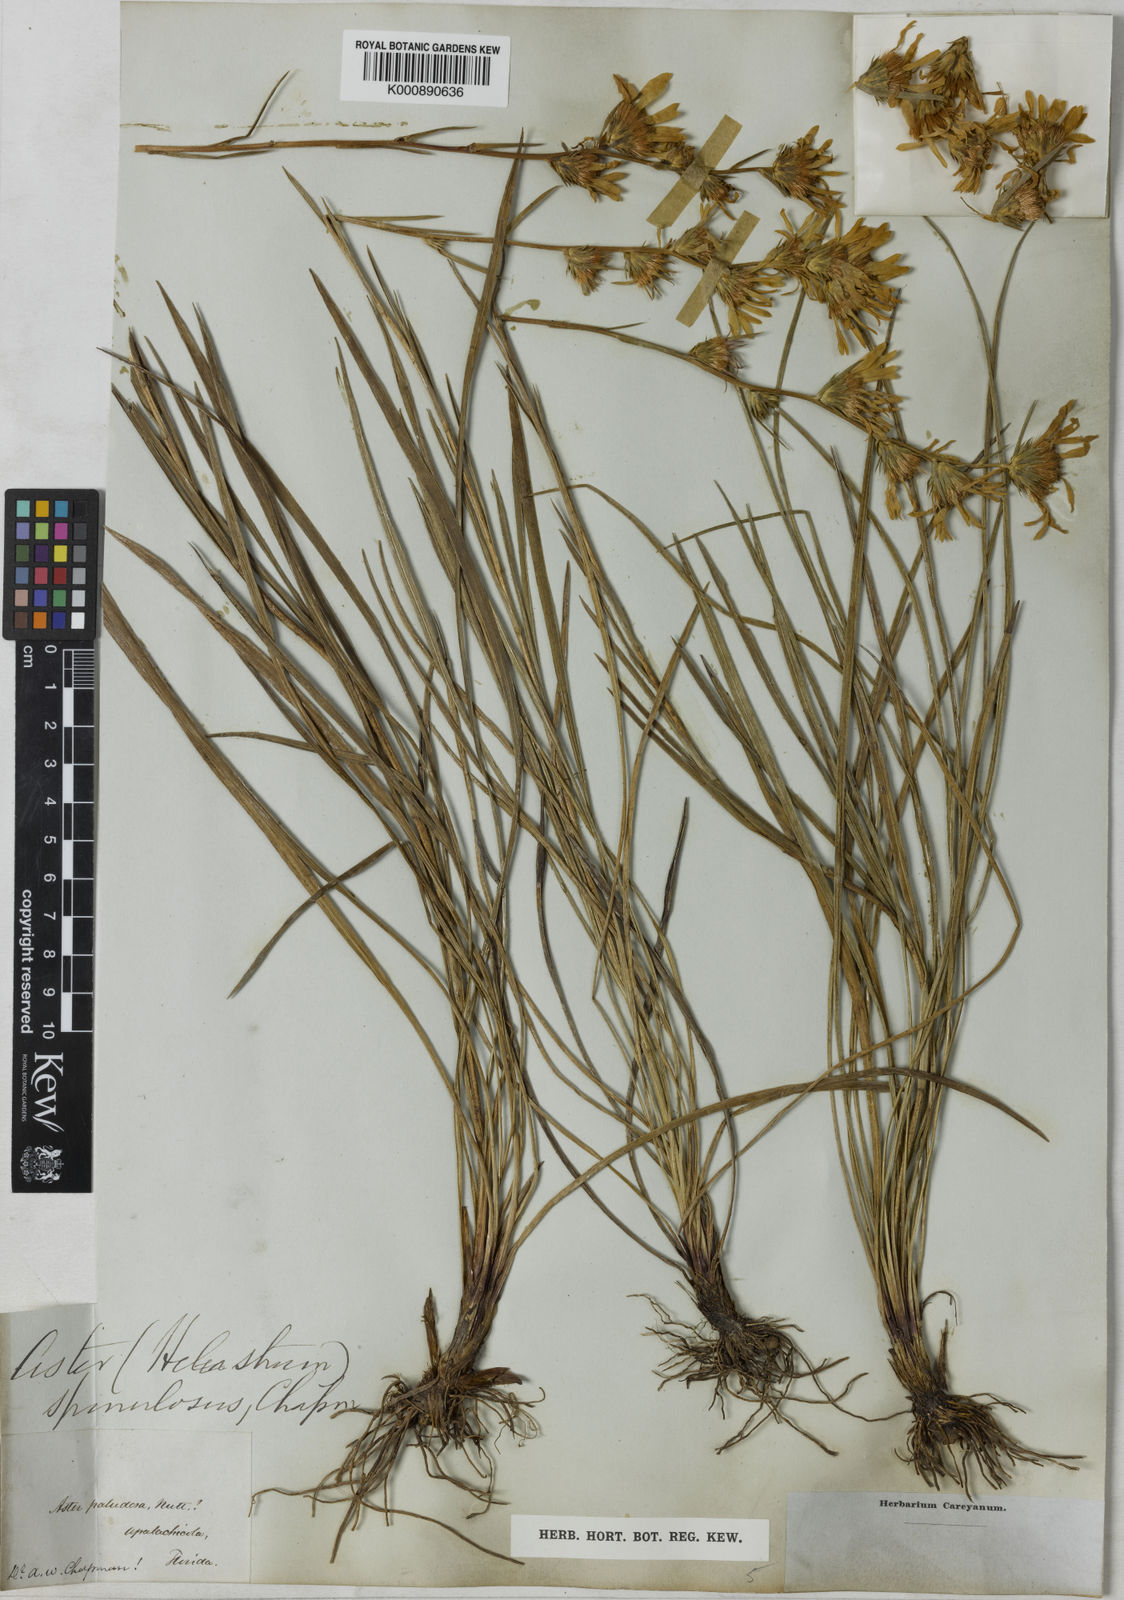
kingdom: Plantae
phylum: Tracheophyta
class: Magnoliopsida
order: Asterales
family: Asteraceae
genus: Eurybia
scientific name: Eurybia spinulosa
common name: Apalachicola aster
